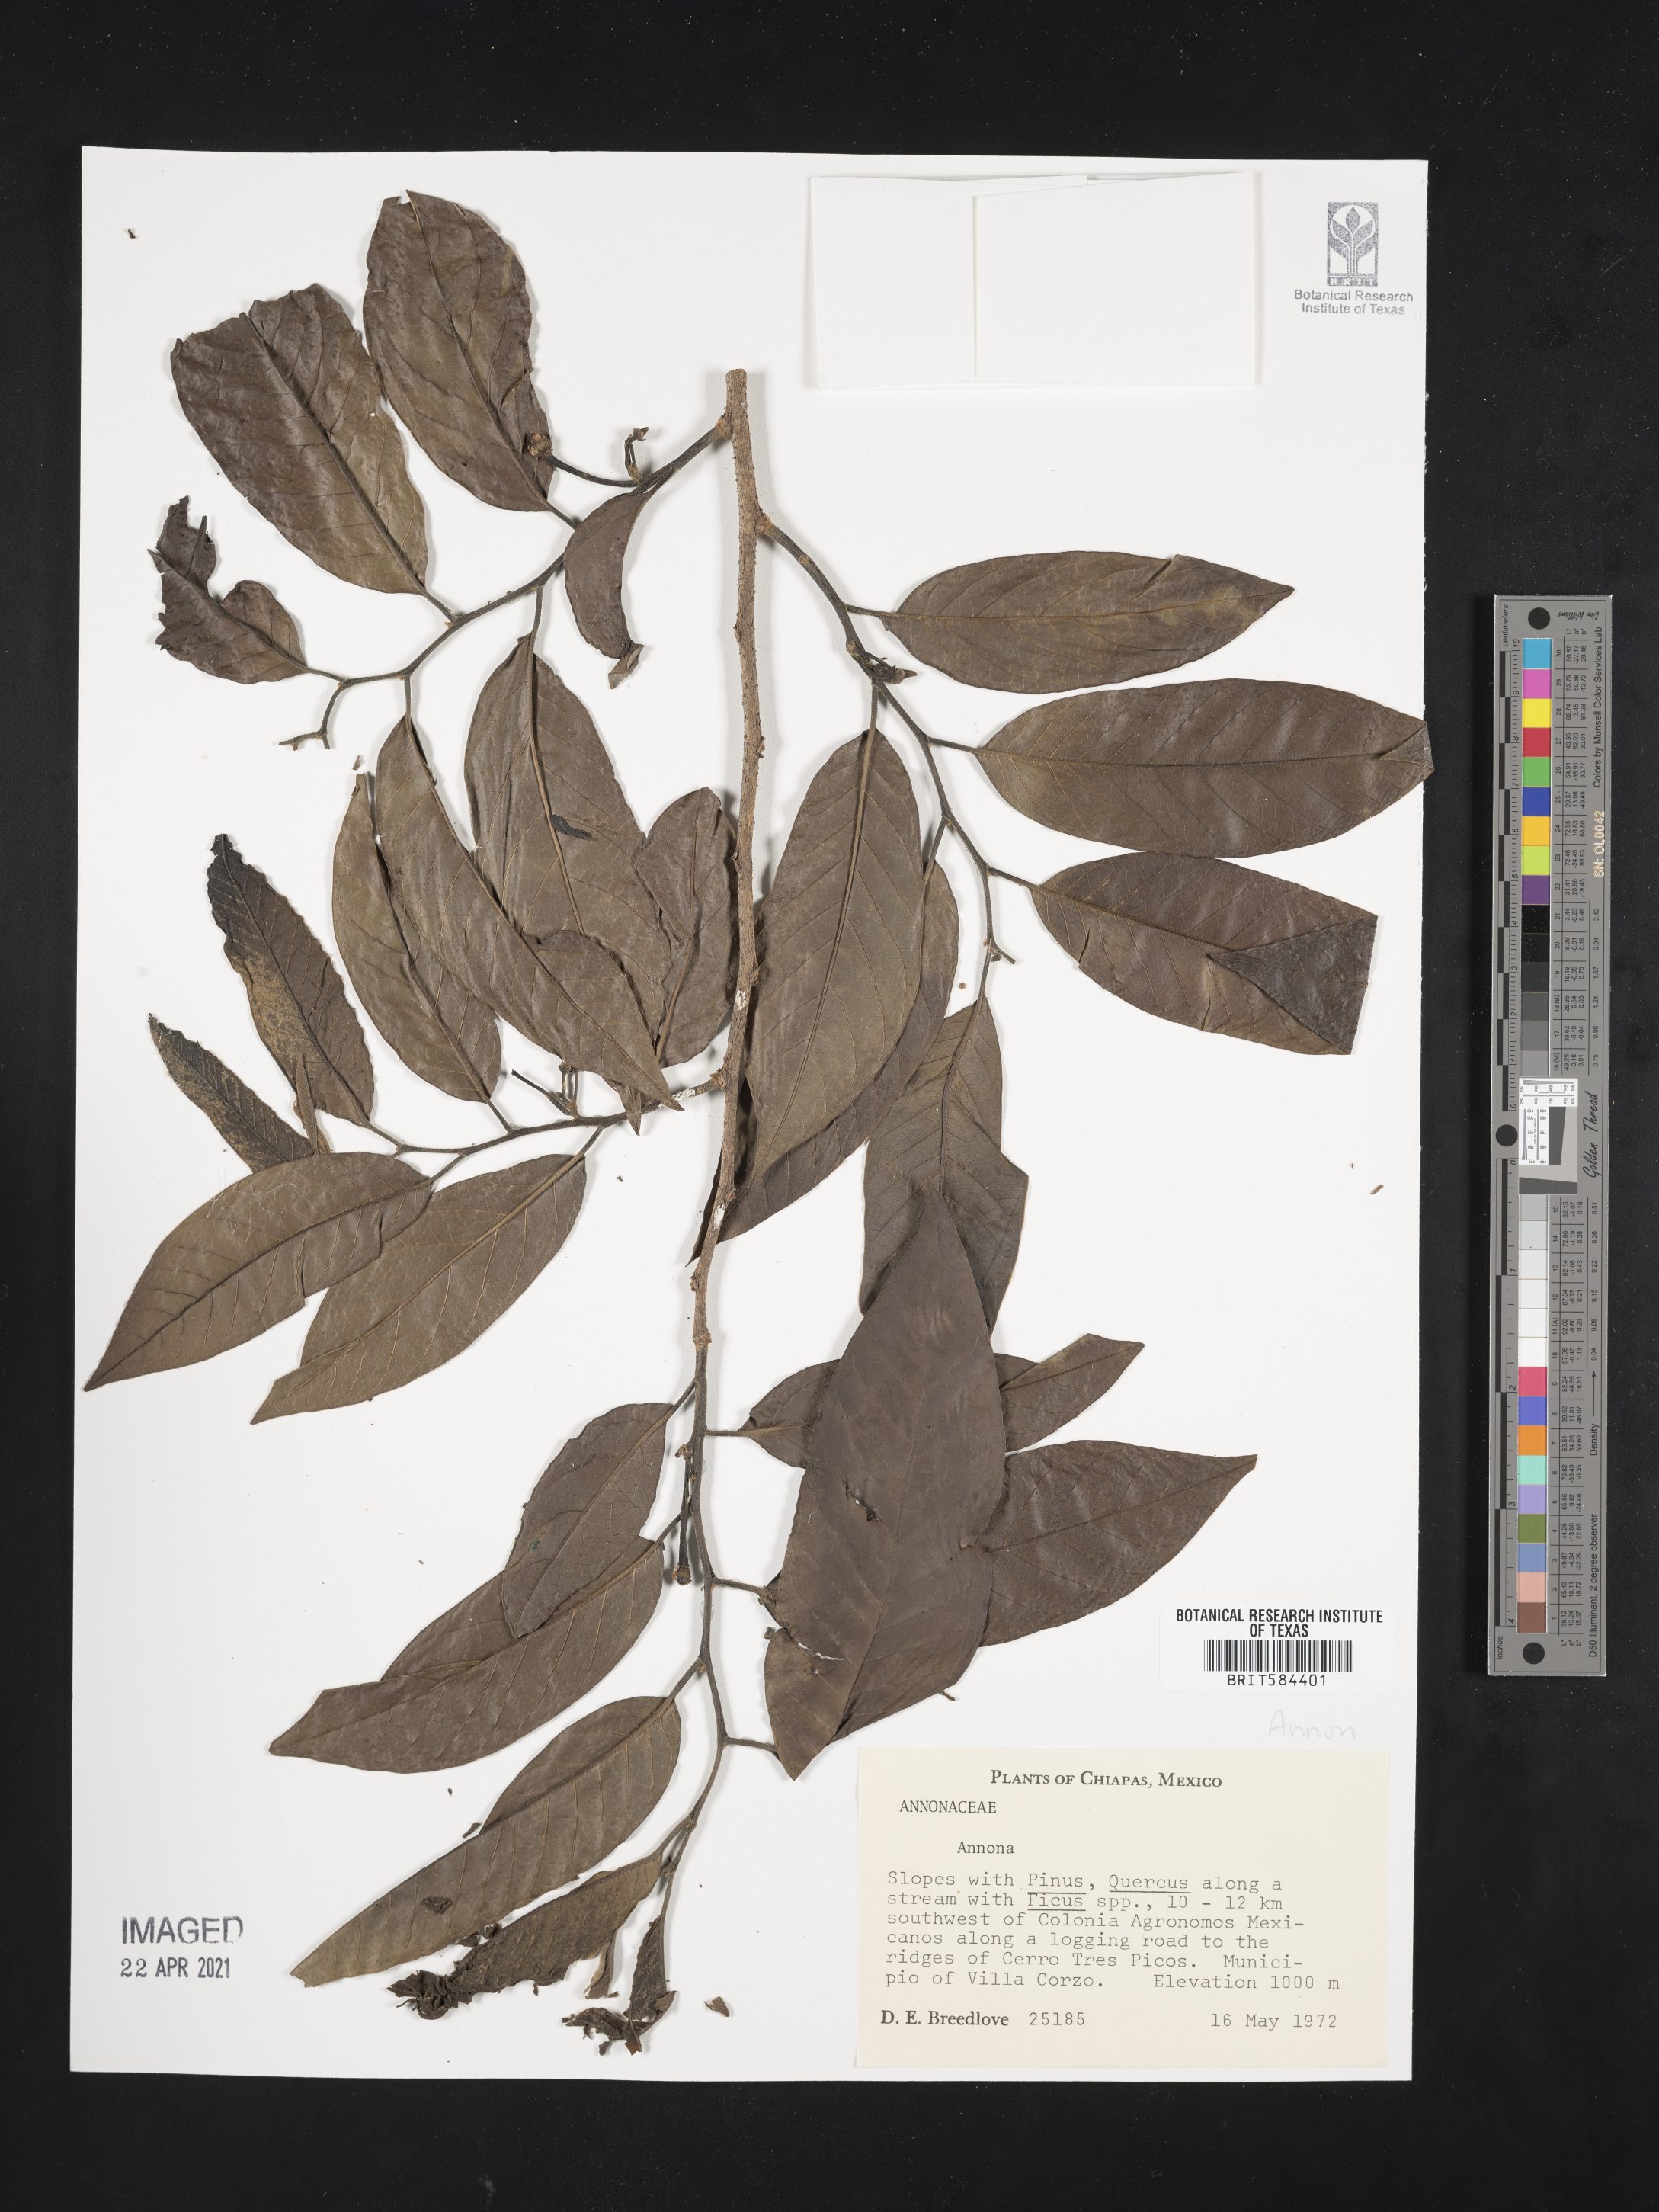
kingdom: Plantae
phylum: Tracheophyta
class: Magnoliopsida
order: Magnoliales
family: Annonaceae
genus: Annona
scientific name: Annona
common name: Anona
